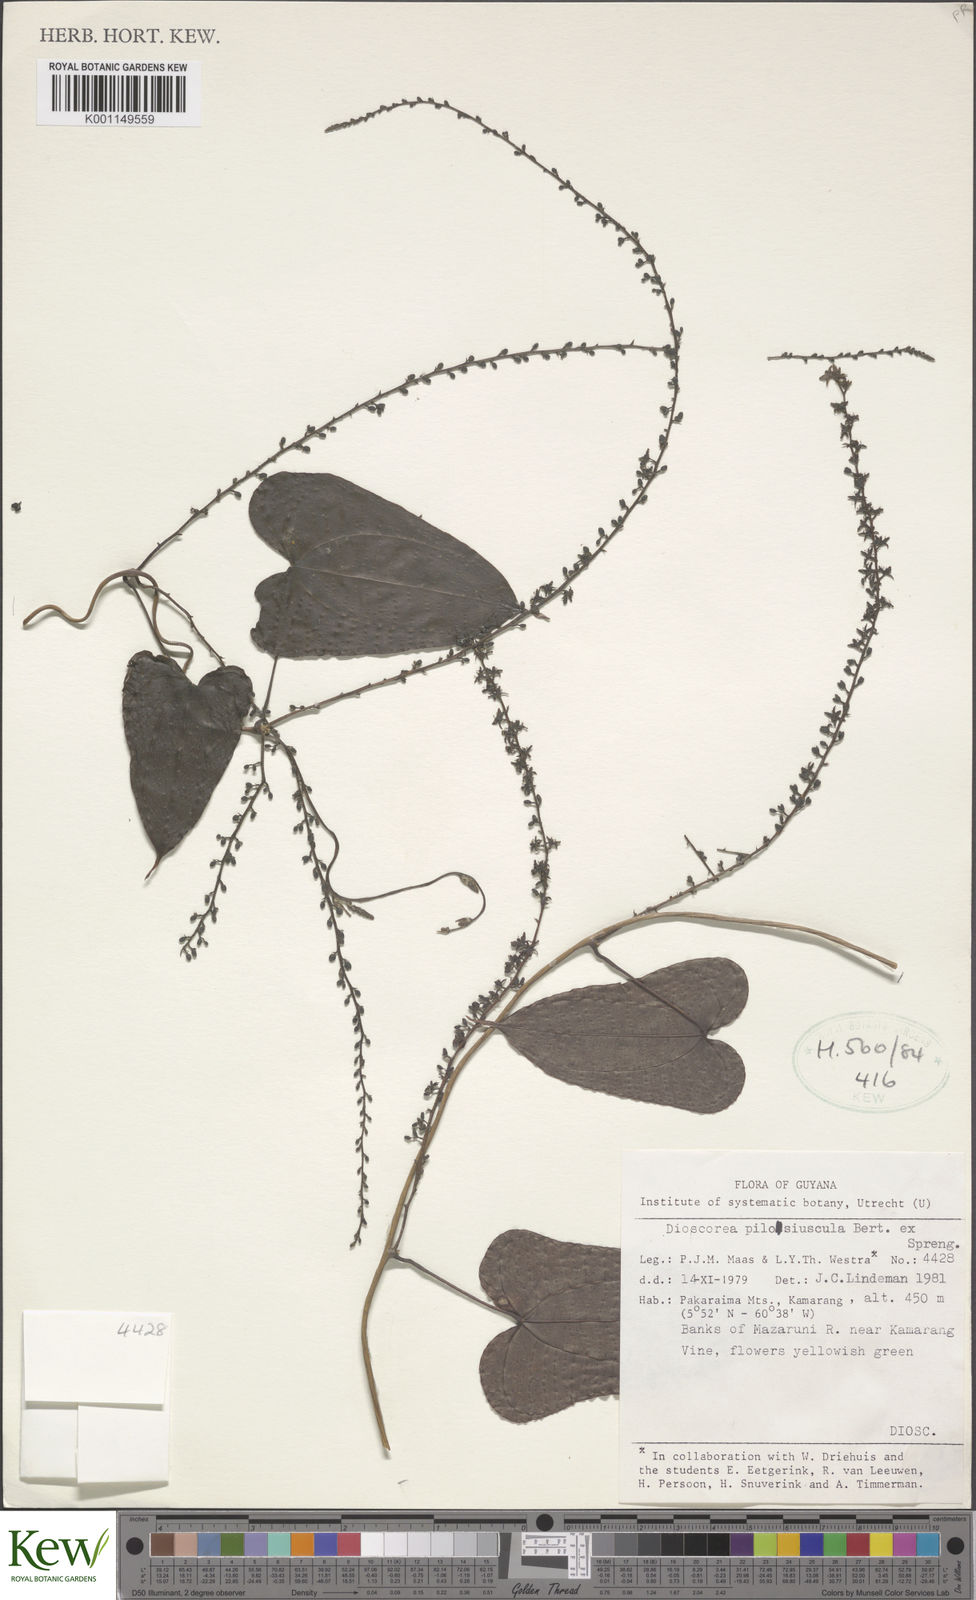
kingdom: Plantae
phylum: Tracheophyta
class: Liliopsida
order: Dioscoreales
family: Dioscoreaceae
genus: Dioscorea
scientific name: Dioscorea pilosiuscula
